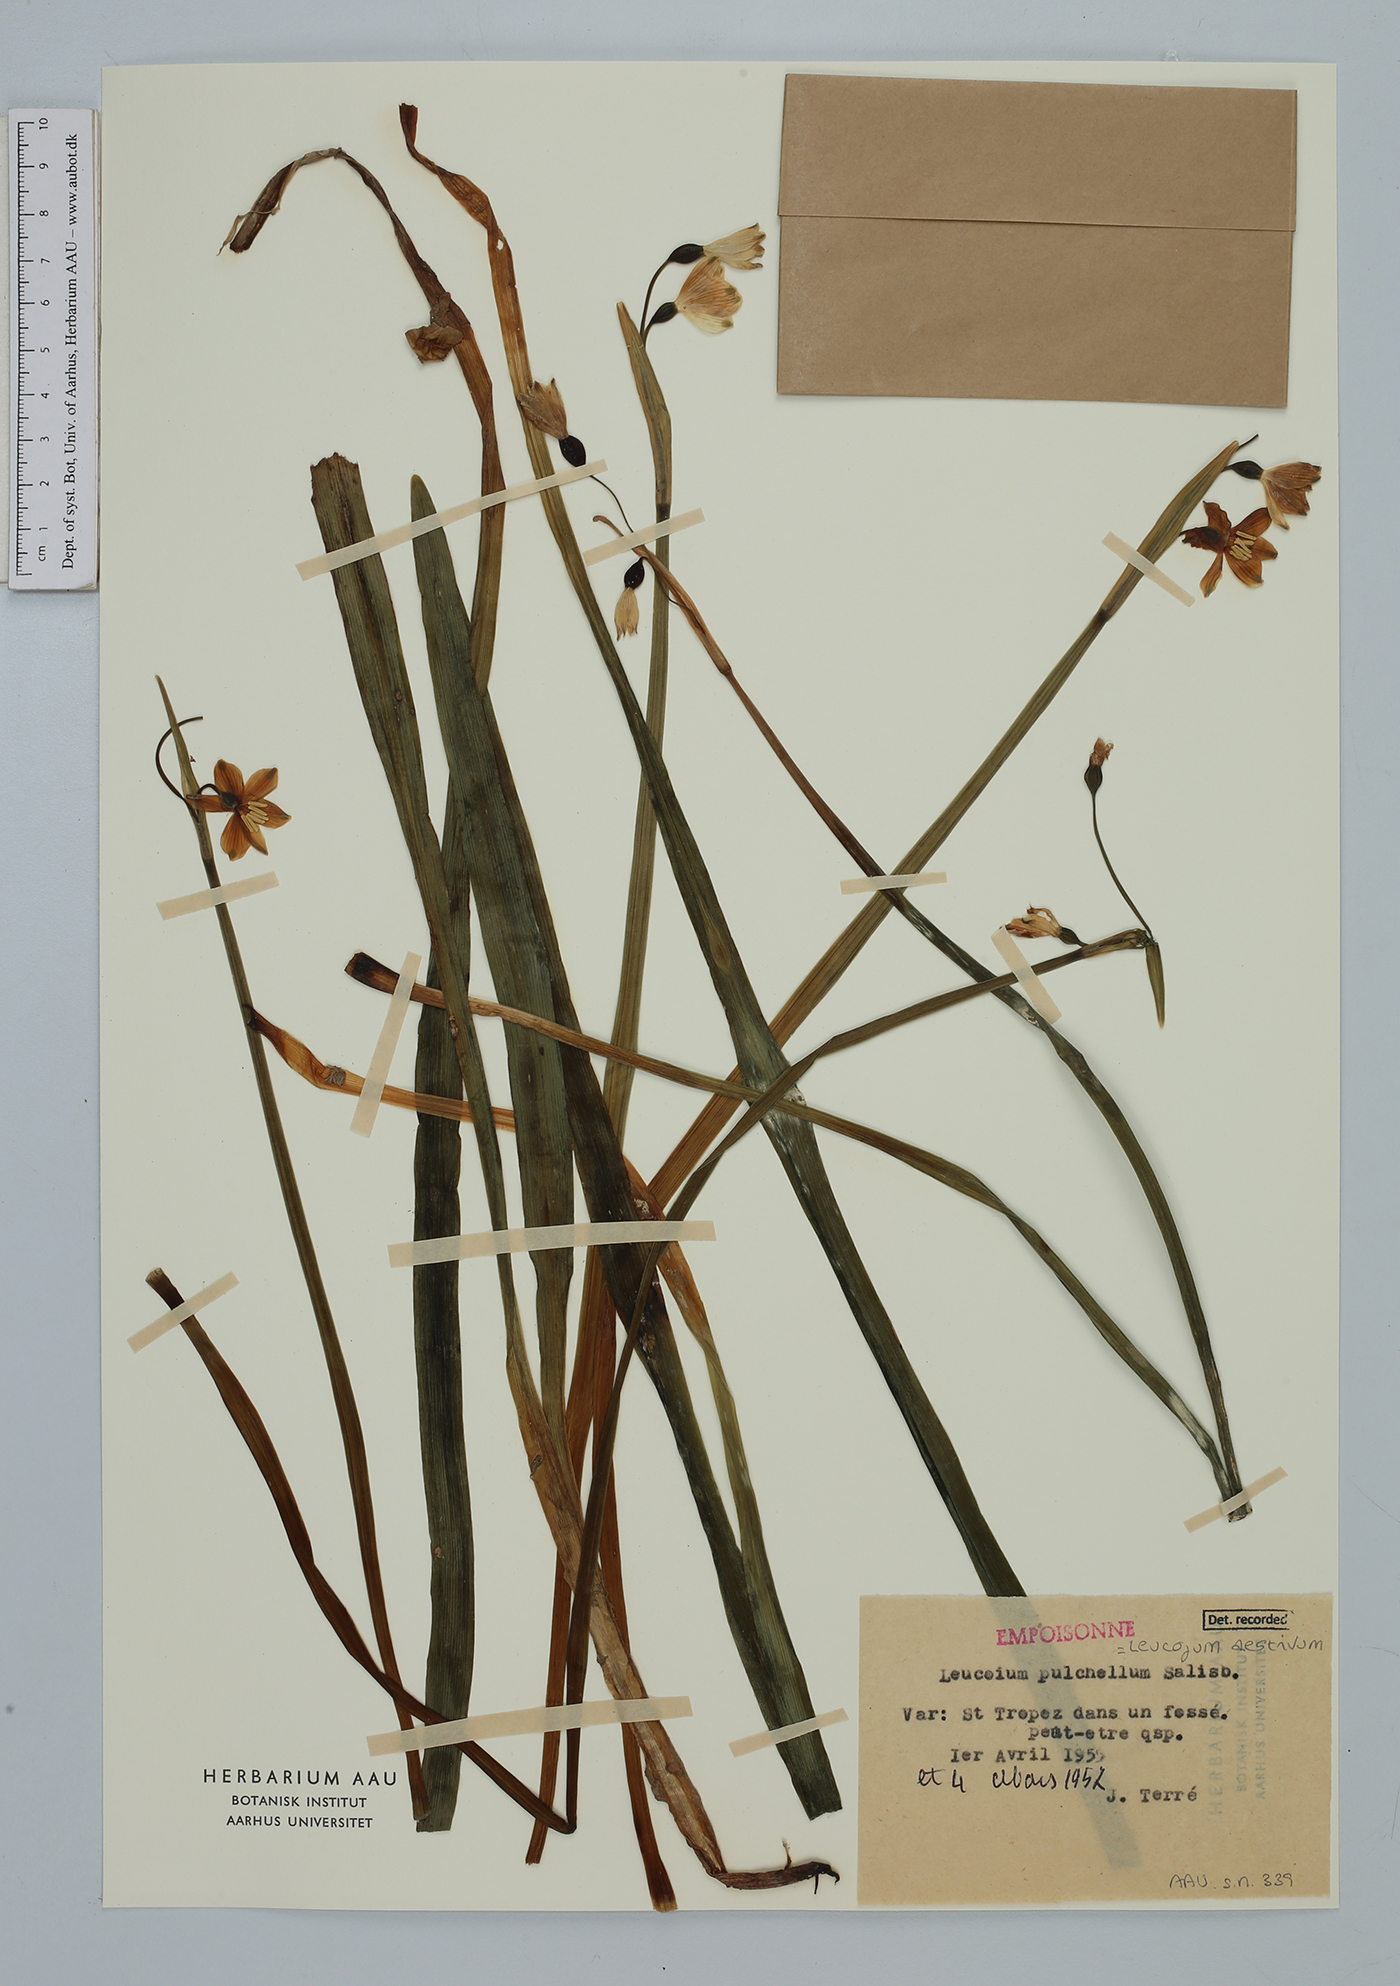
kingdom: Plantae
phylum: Tracheophyta
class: Liliopsida
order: Asparagales
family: Amaryllidaceae
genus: Leucojum
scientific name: Leucojum aestivum
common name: Summer snowflake
